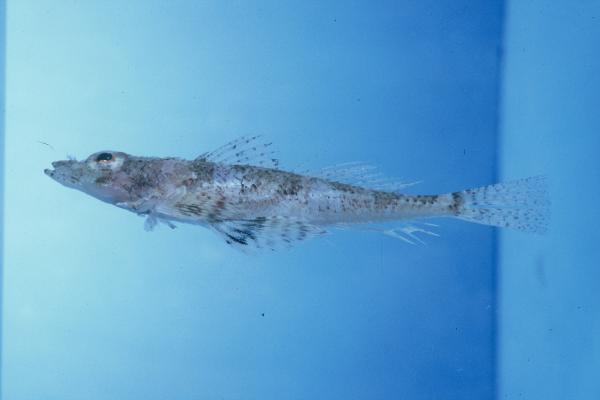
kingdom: Animalia
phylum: Chordata
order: Scorpaeniformes
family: Platycephalidae
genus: Onigocia
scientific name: Onigocia pedimacula
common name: Broadband flathead
